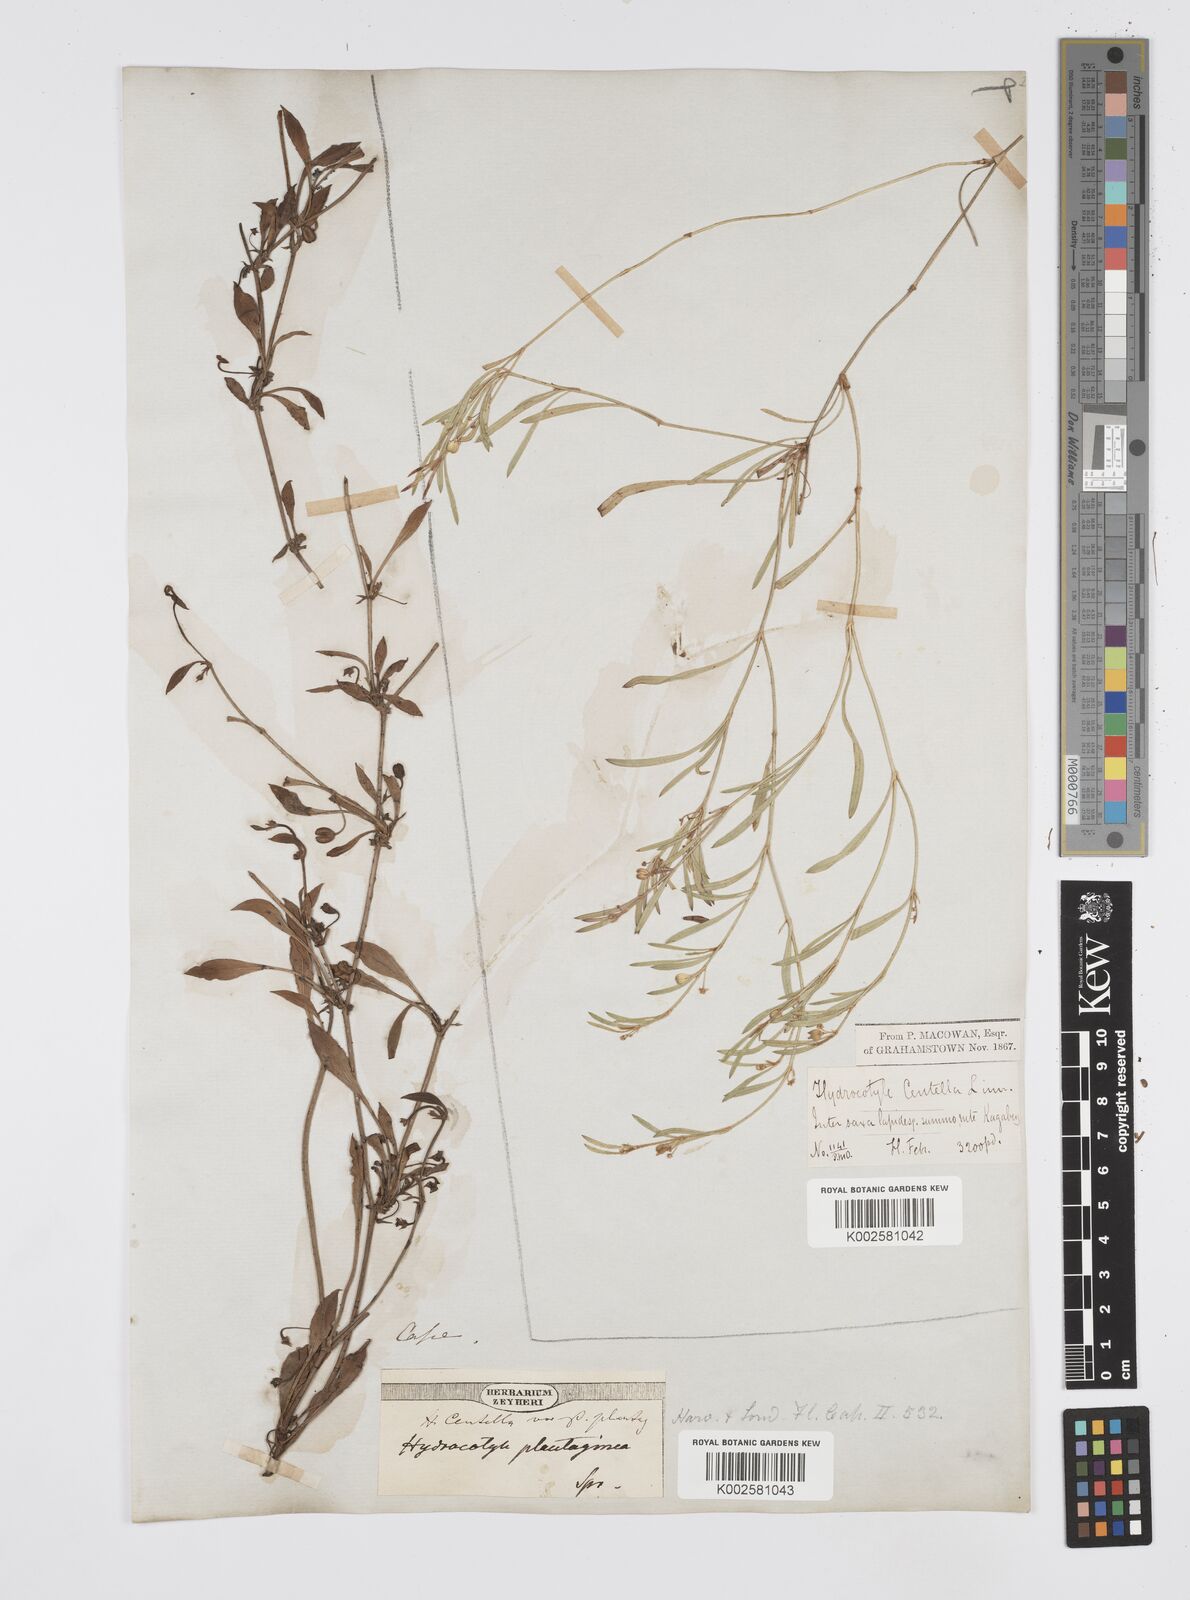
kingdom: Plantae
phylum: Tracheophyta
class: Magnoliopsida
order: Apiales
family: Apiaceae
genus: Centella
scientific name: Centella glabrata
